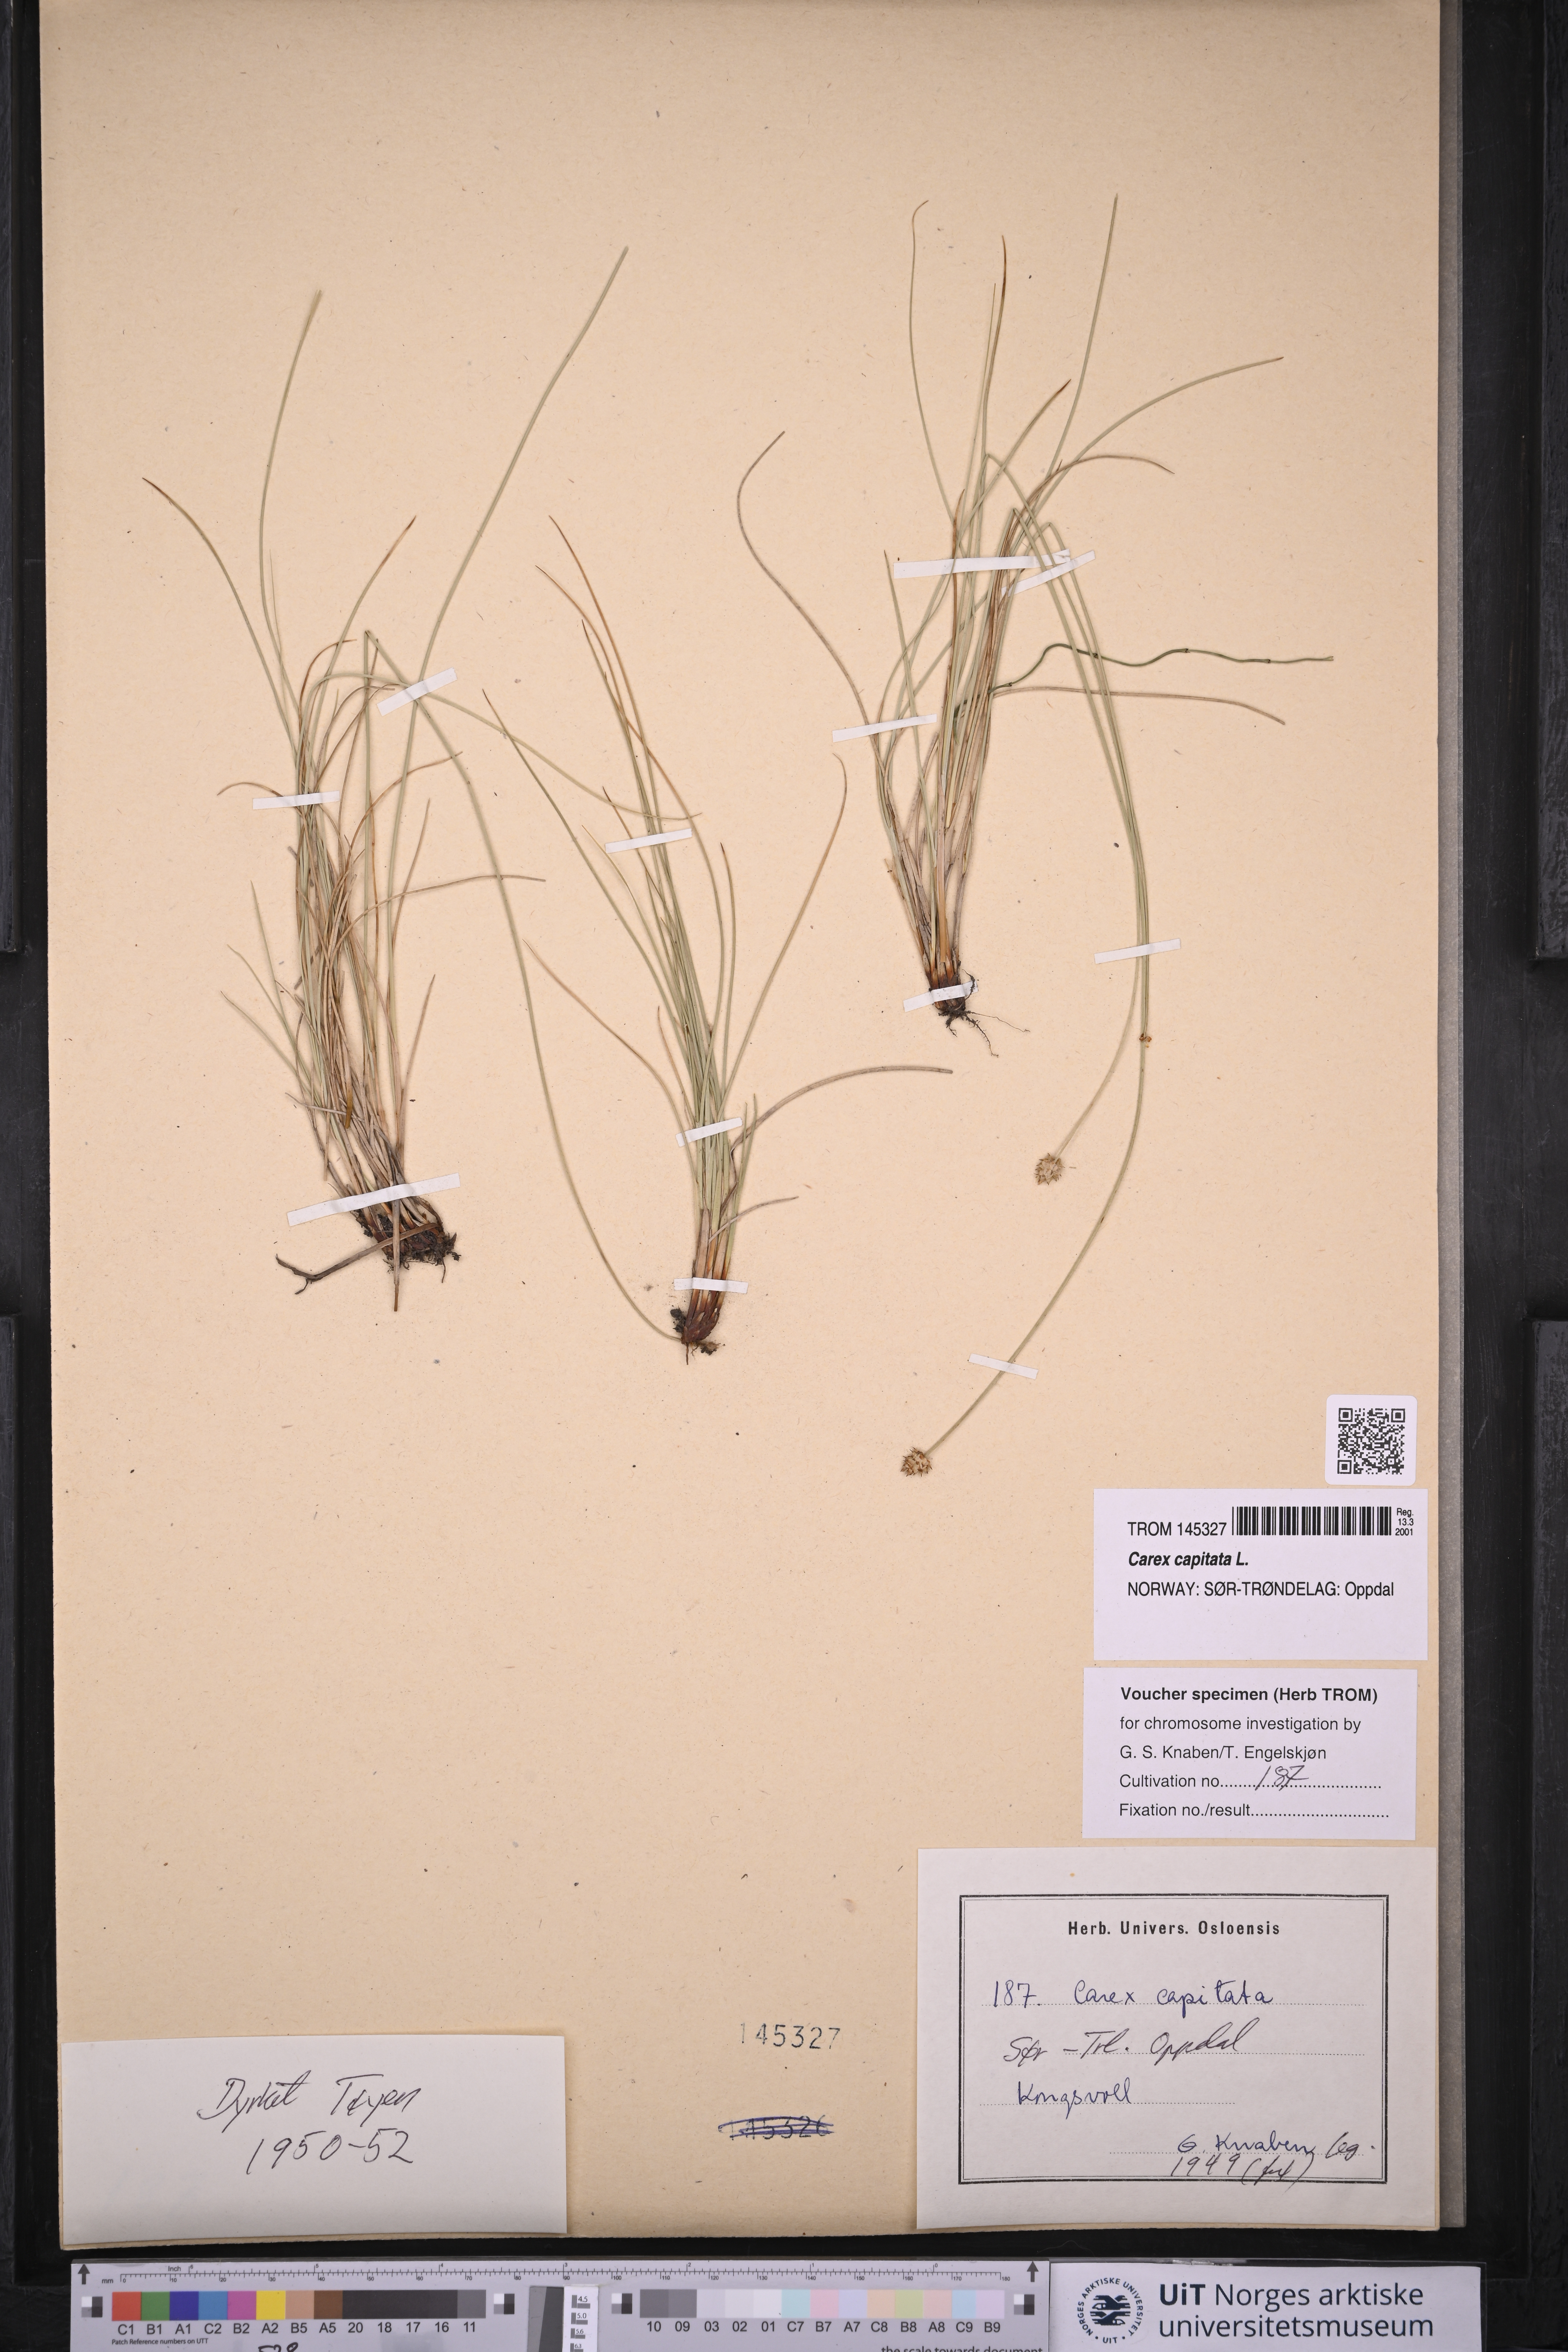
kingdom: Plantae
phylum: Tracheophyta
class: Liliopsida
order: Poales
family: Cyperaceae
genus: Carex
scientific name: Carex capitata
